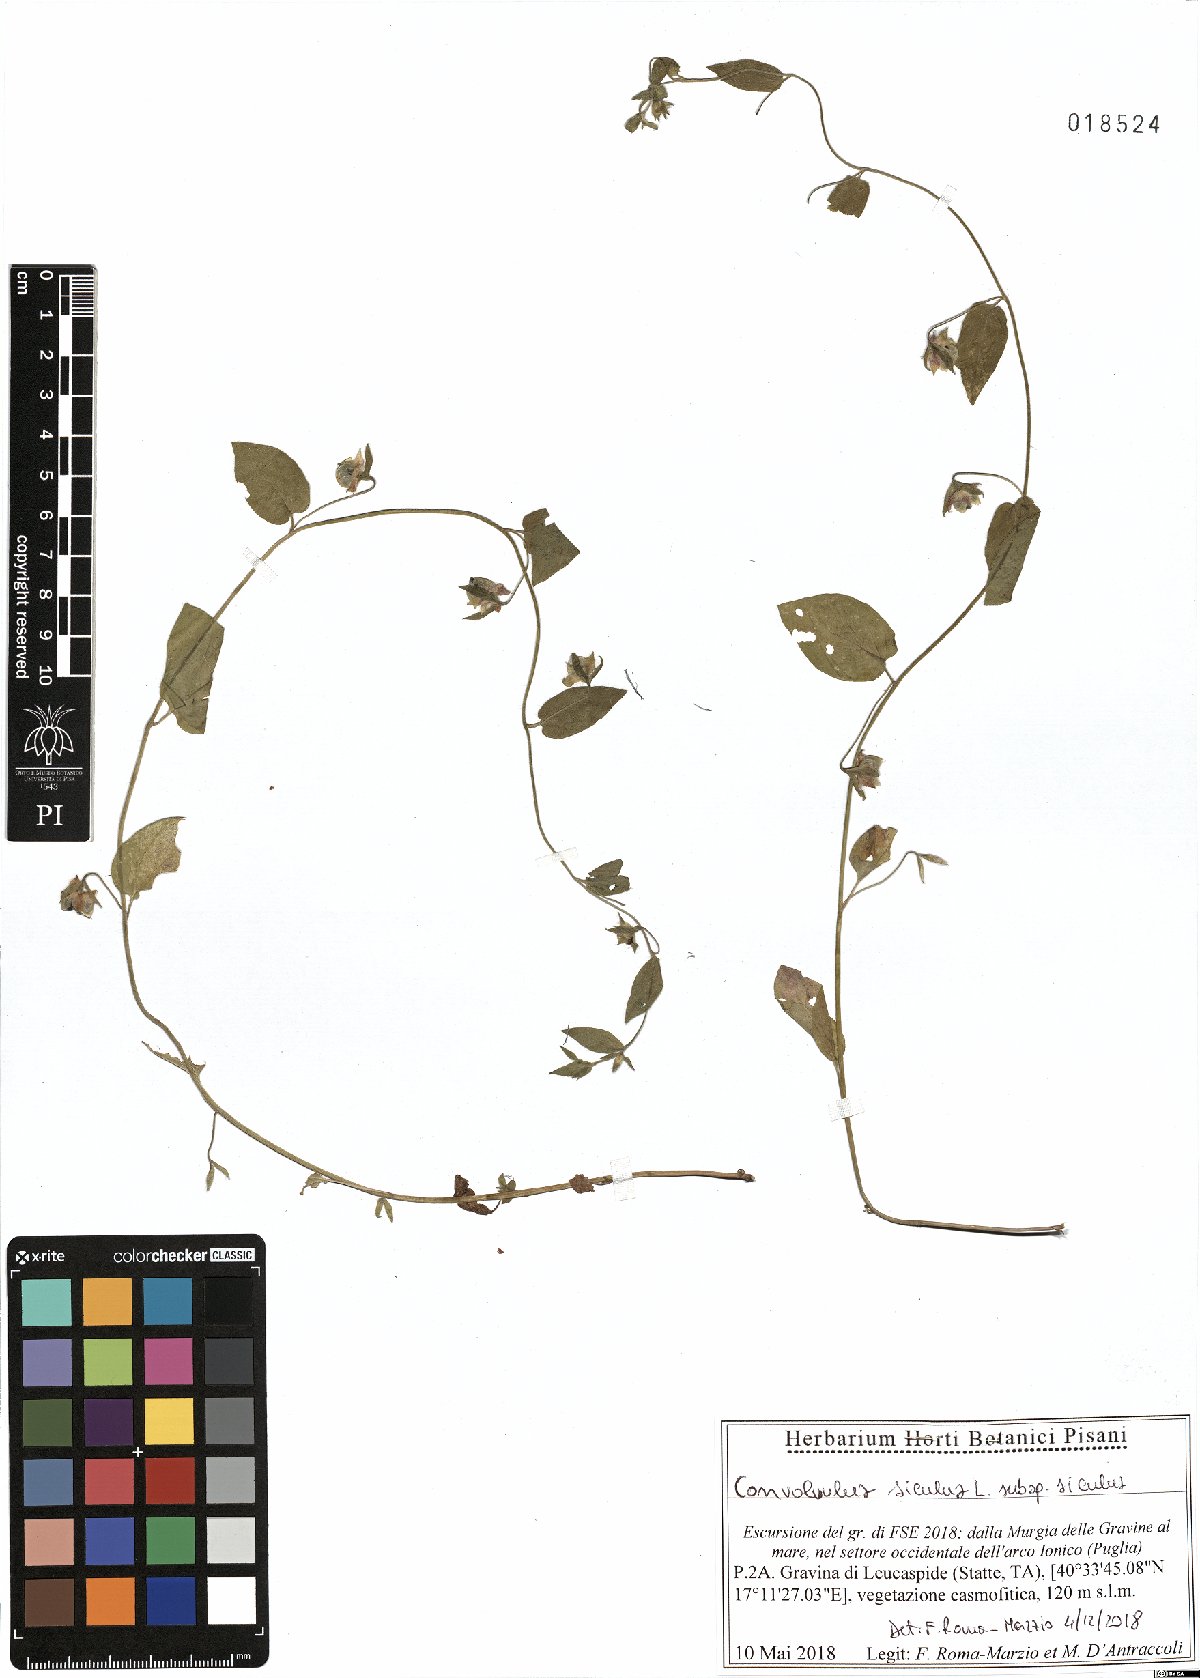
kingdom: Plantae
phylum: Tracheophyta
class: Magnoliopsida
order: Solanales
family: Convolvulaceae
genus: Convolvulus
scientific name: Convolvulus siculus
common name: Small blue-convolvulus
